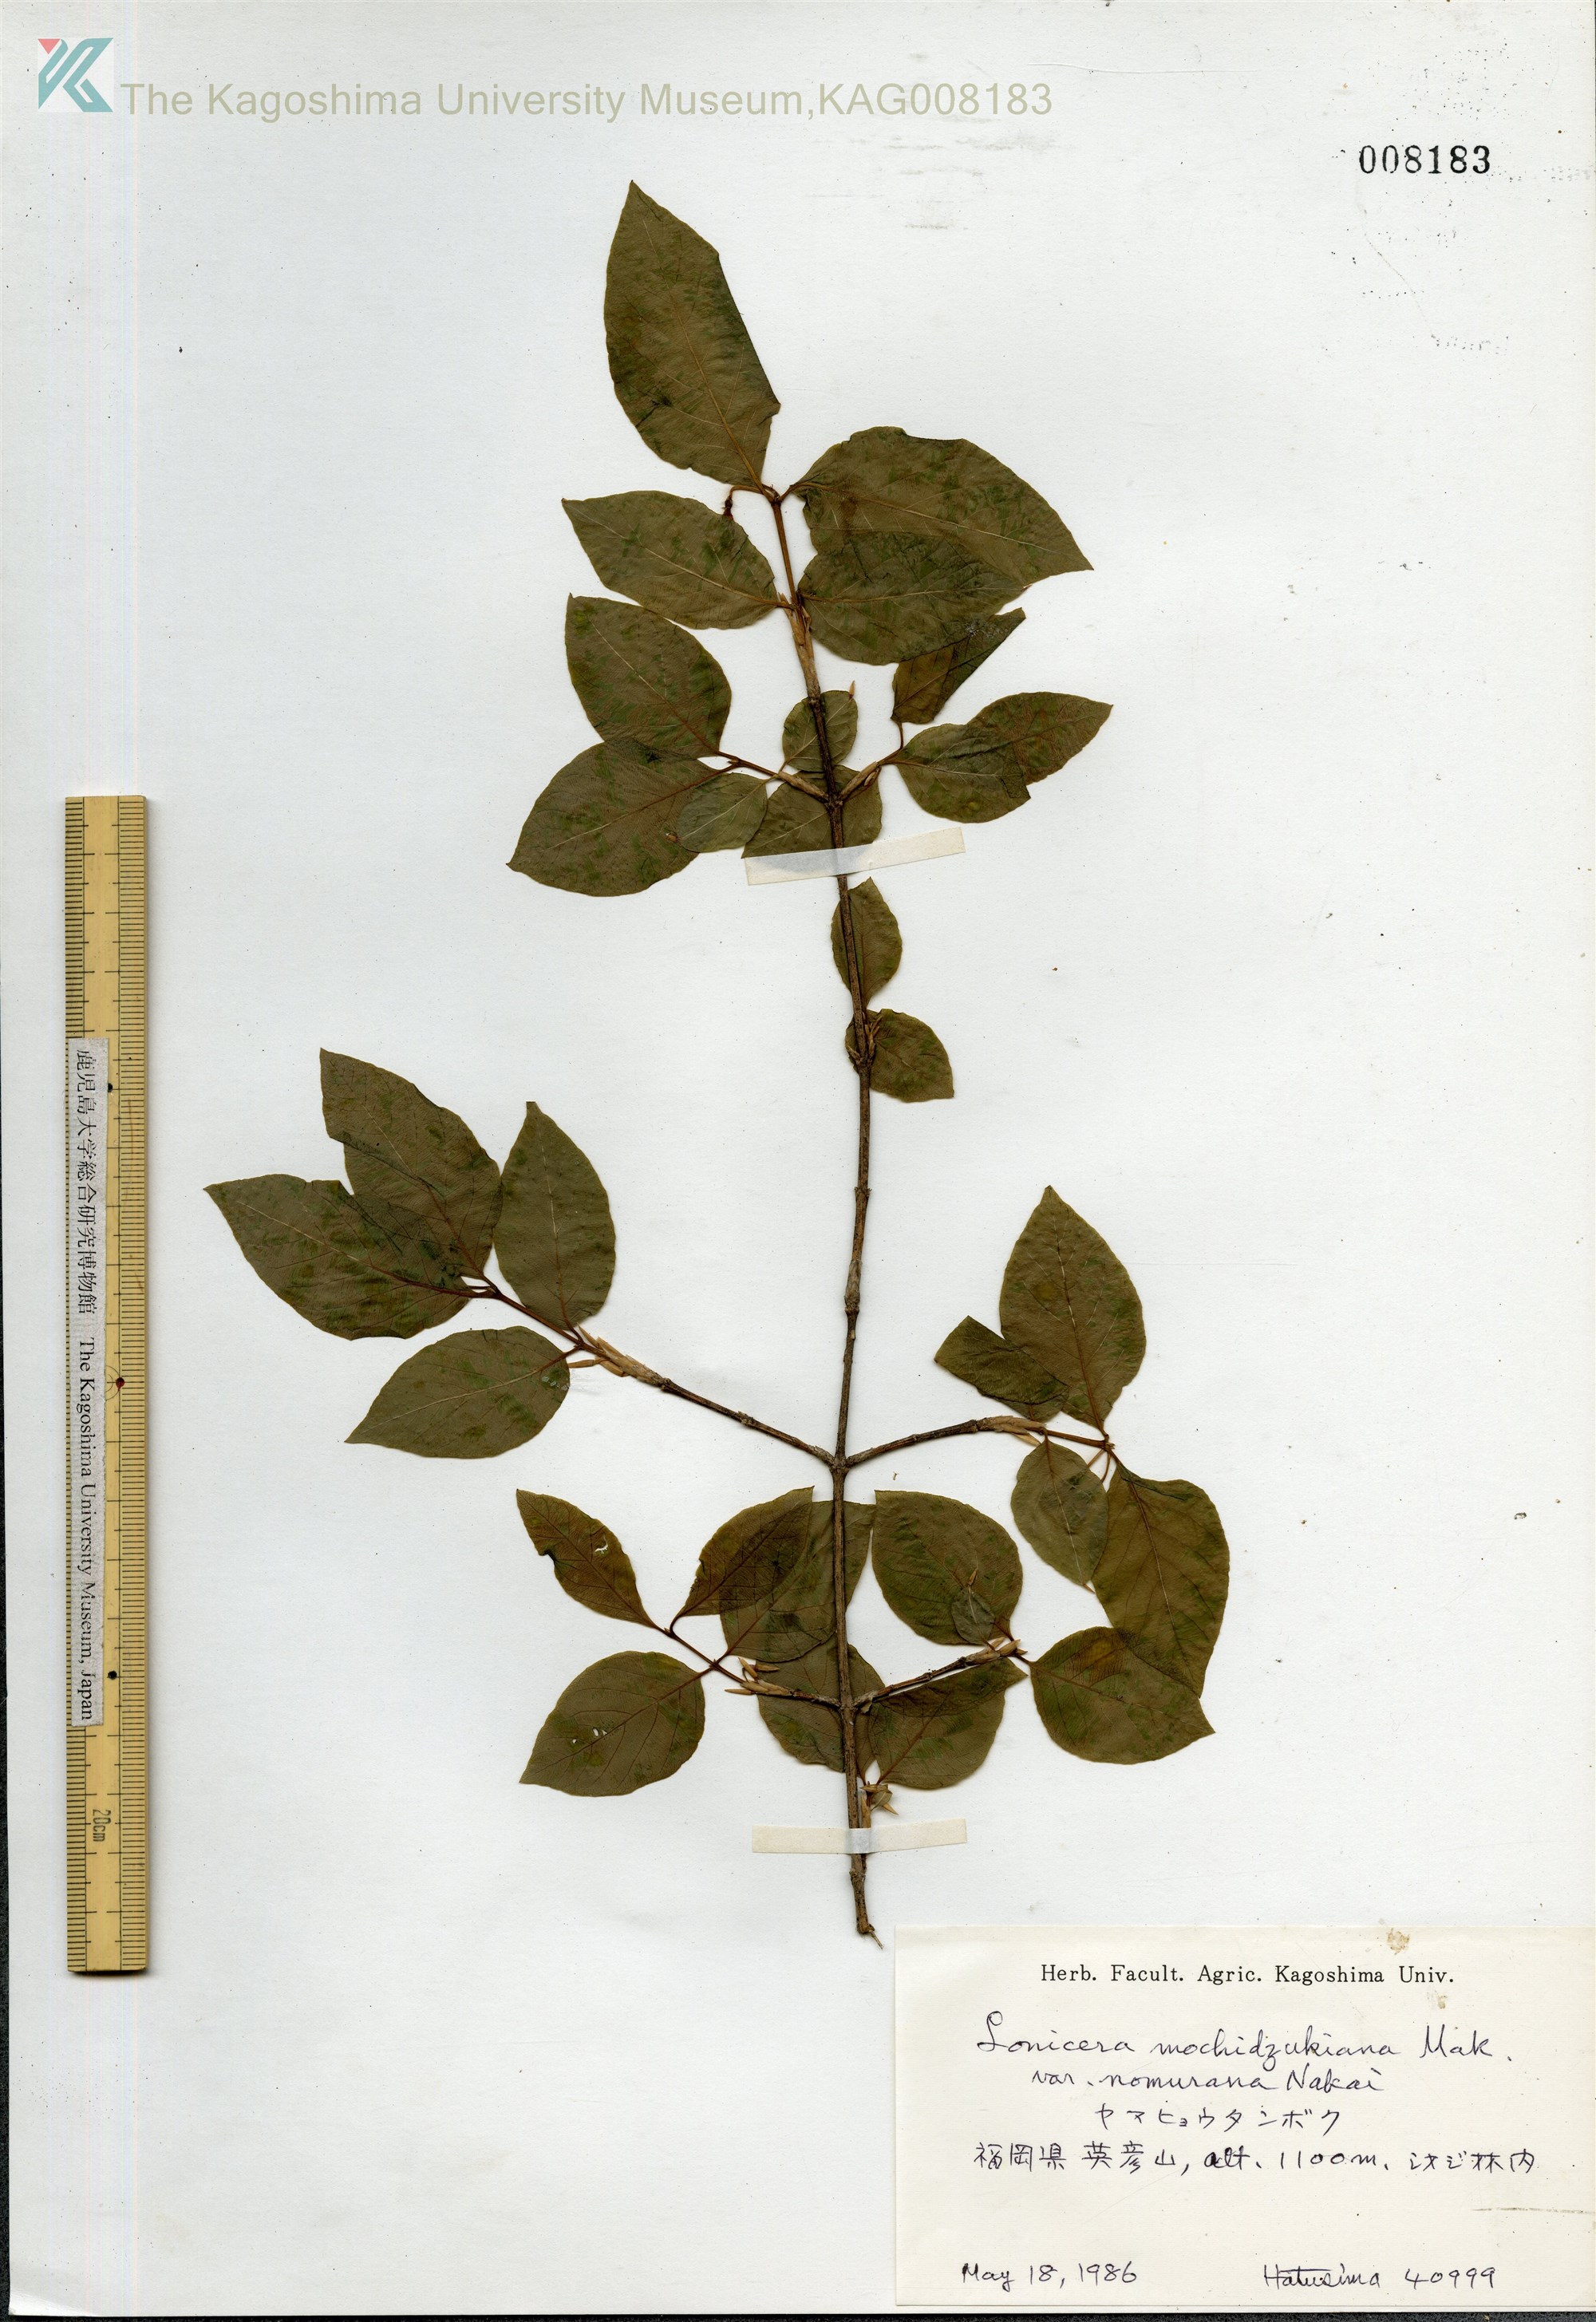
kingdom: Plantae
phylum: Tracheophyta
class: Magnoliopsida
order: Dipsacales
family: Caprifoliaceae
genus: Lonicera
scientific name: Lonicera subhispida
